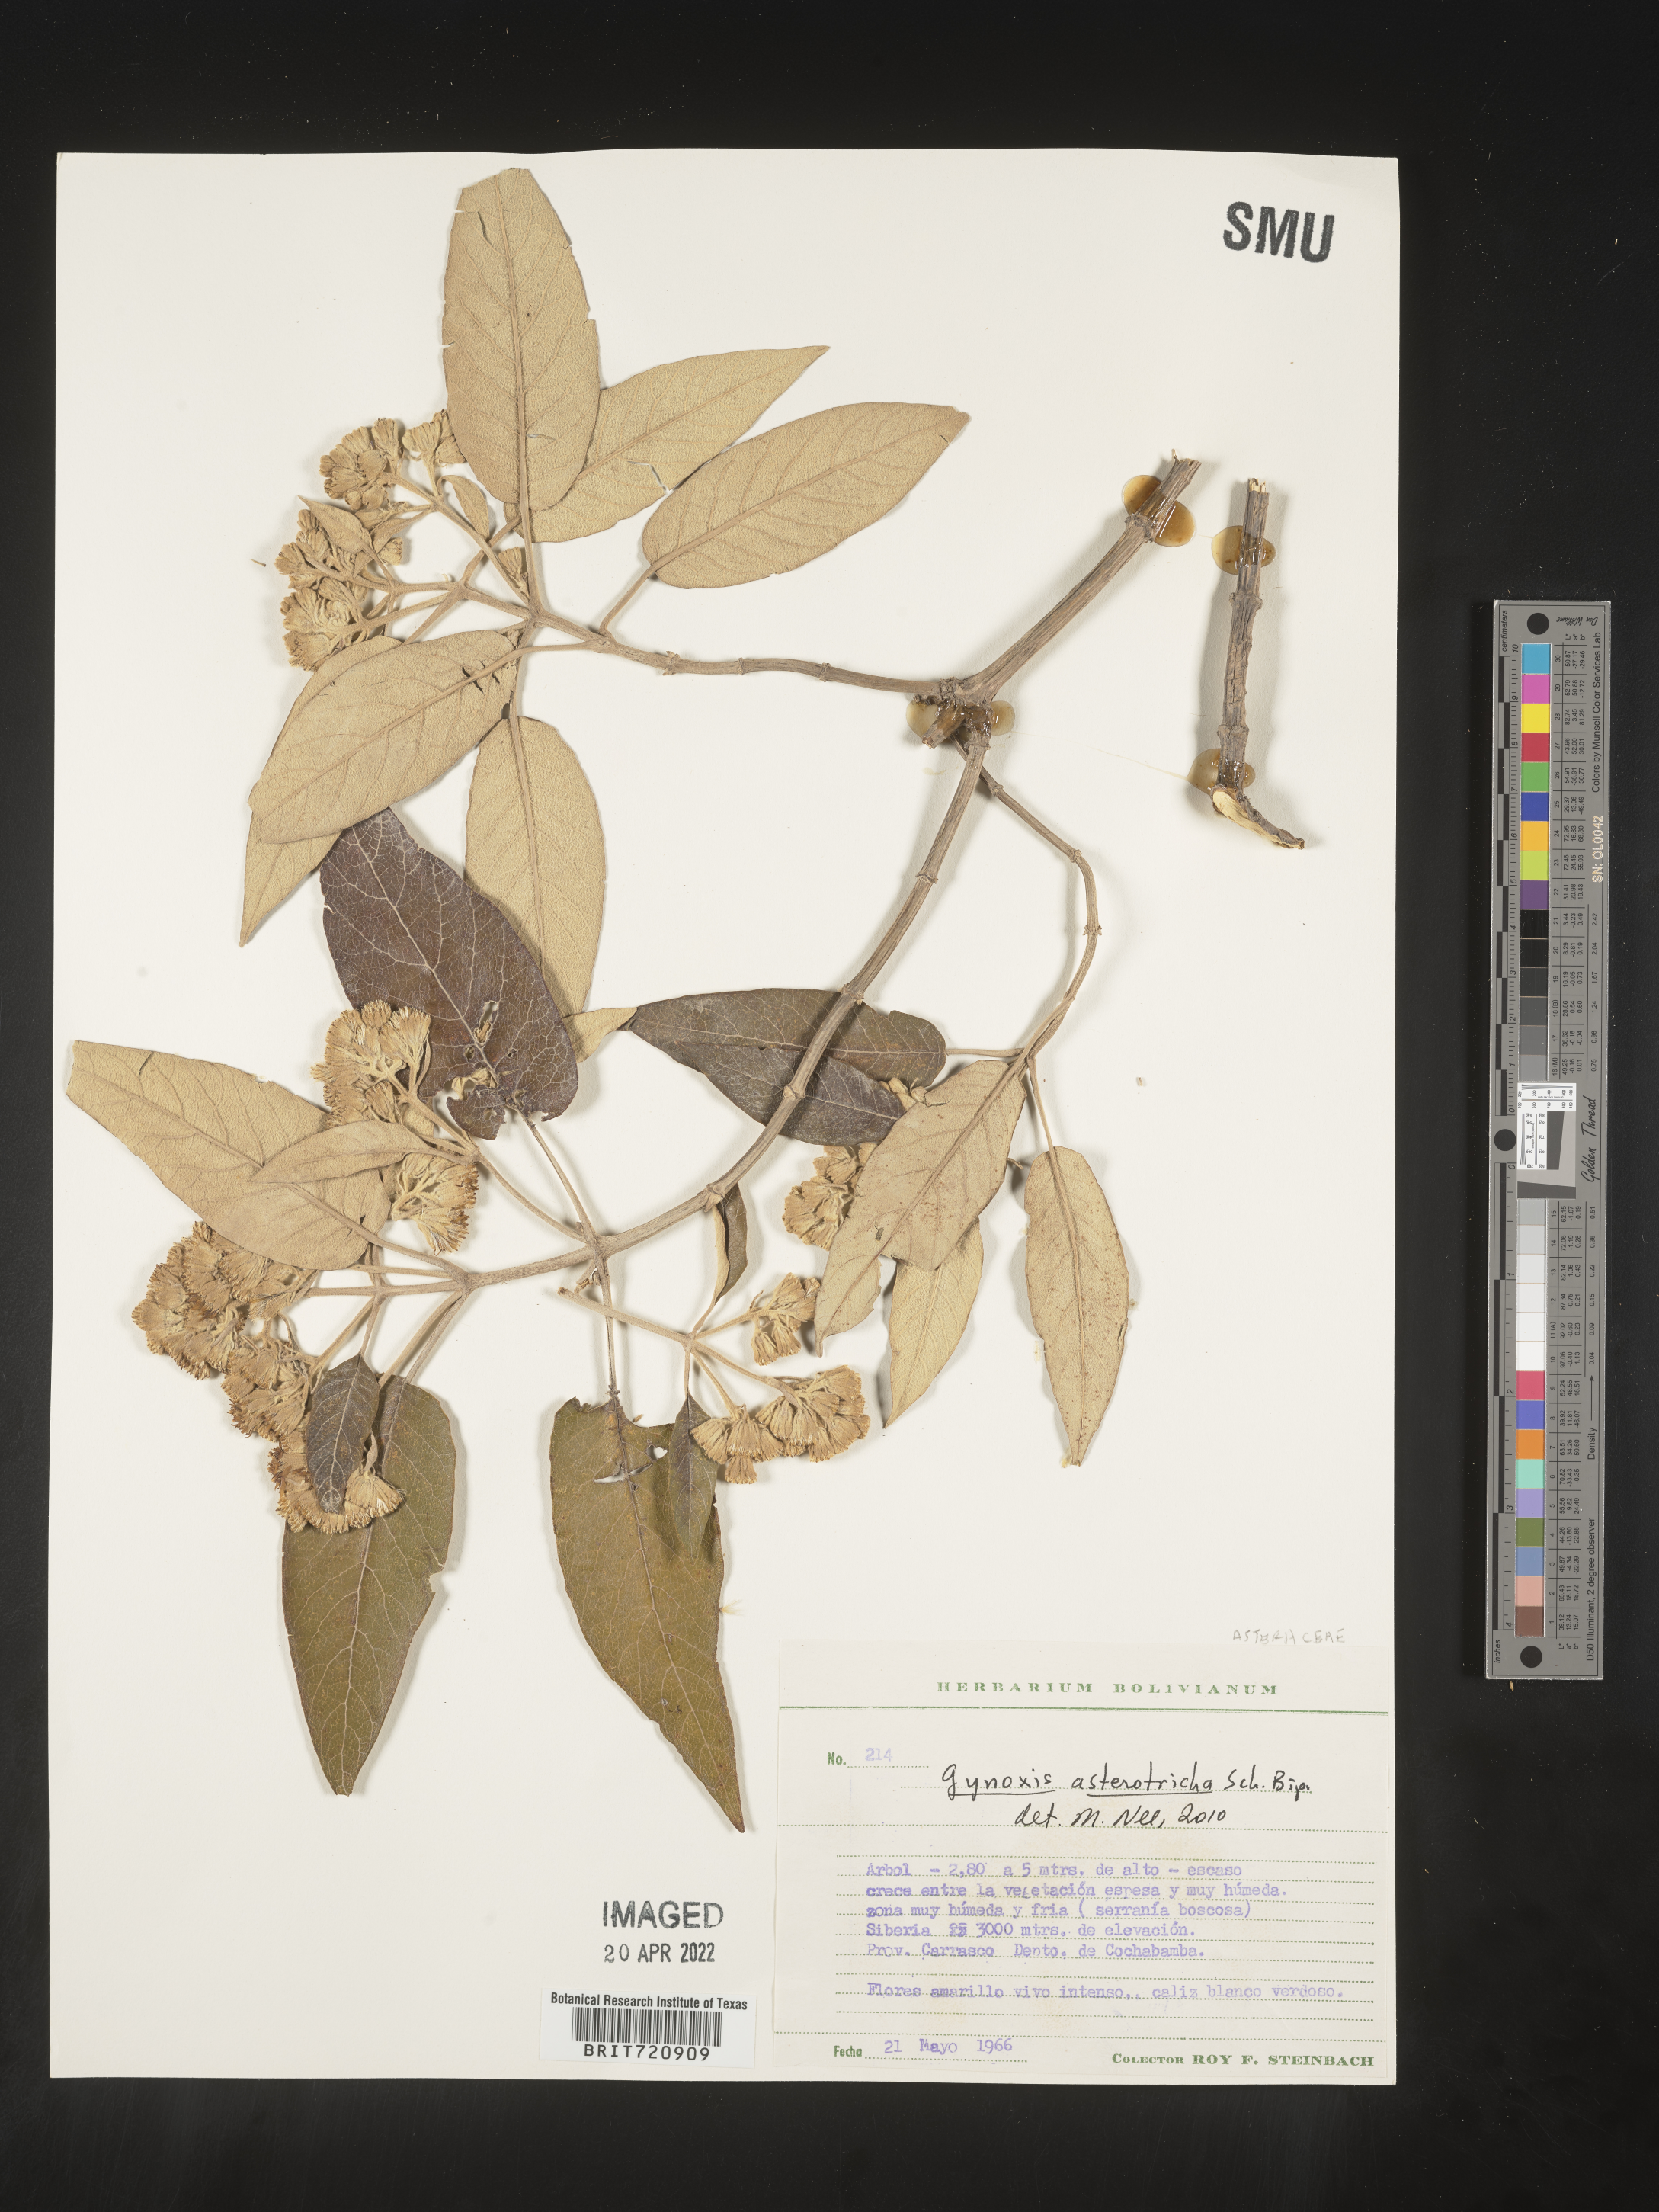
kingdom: Plantae
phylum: Tracheophyta
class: Magnoliopsida
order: Asterales
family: Asteraceae
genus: Gynoxys
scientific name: Gynoxys
